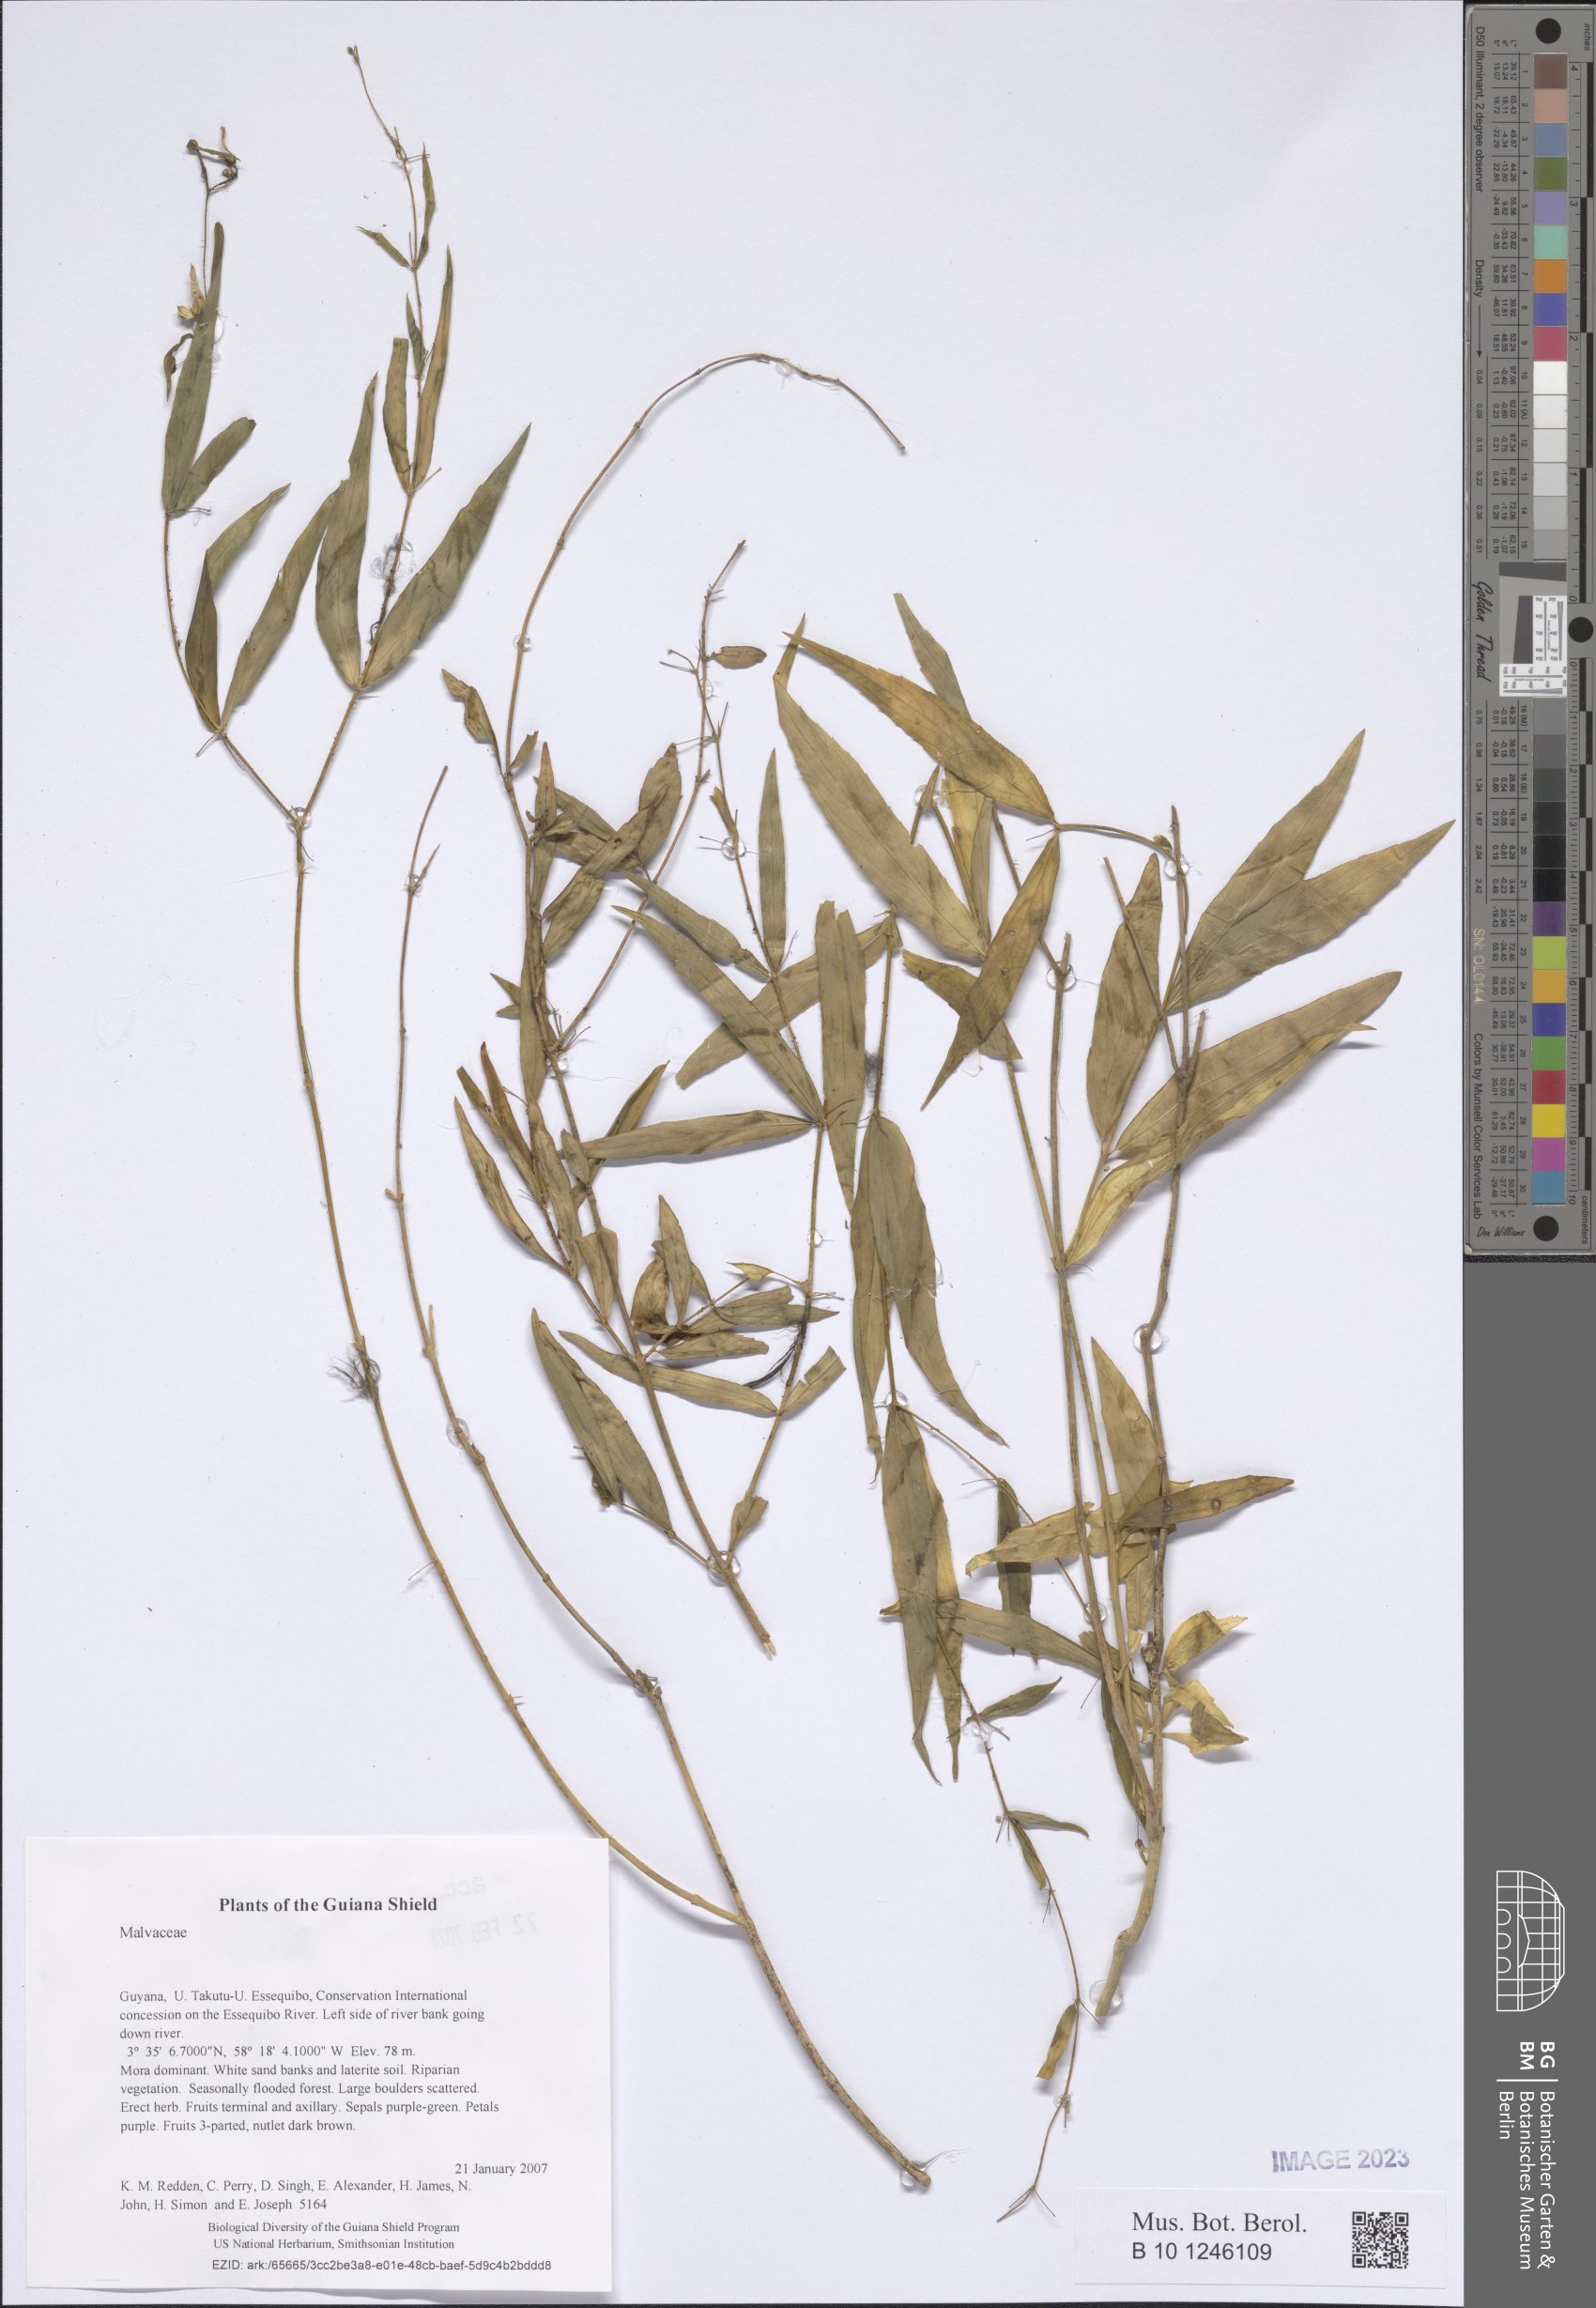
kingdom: Plantae
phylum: Tracheophyta
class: Magnoliopsida
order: Lamiales
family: Plantaginaceae
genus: Scoparia
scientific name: Scoparia
